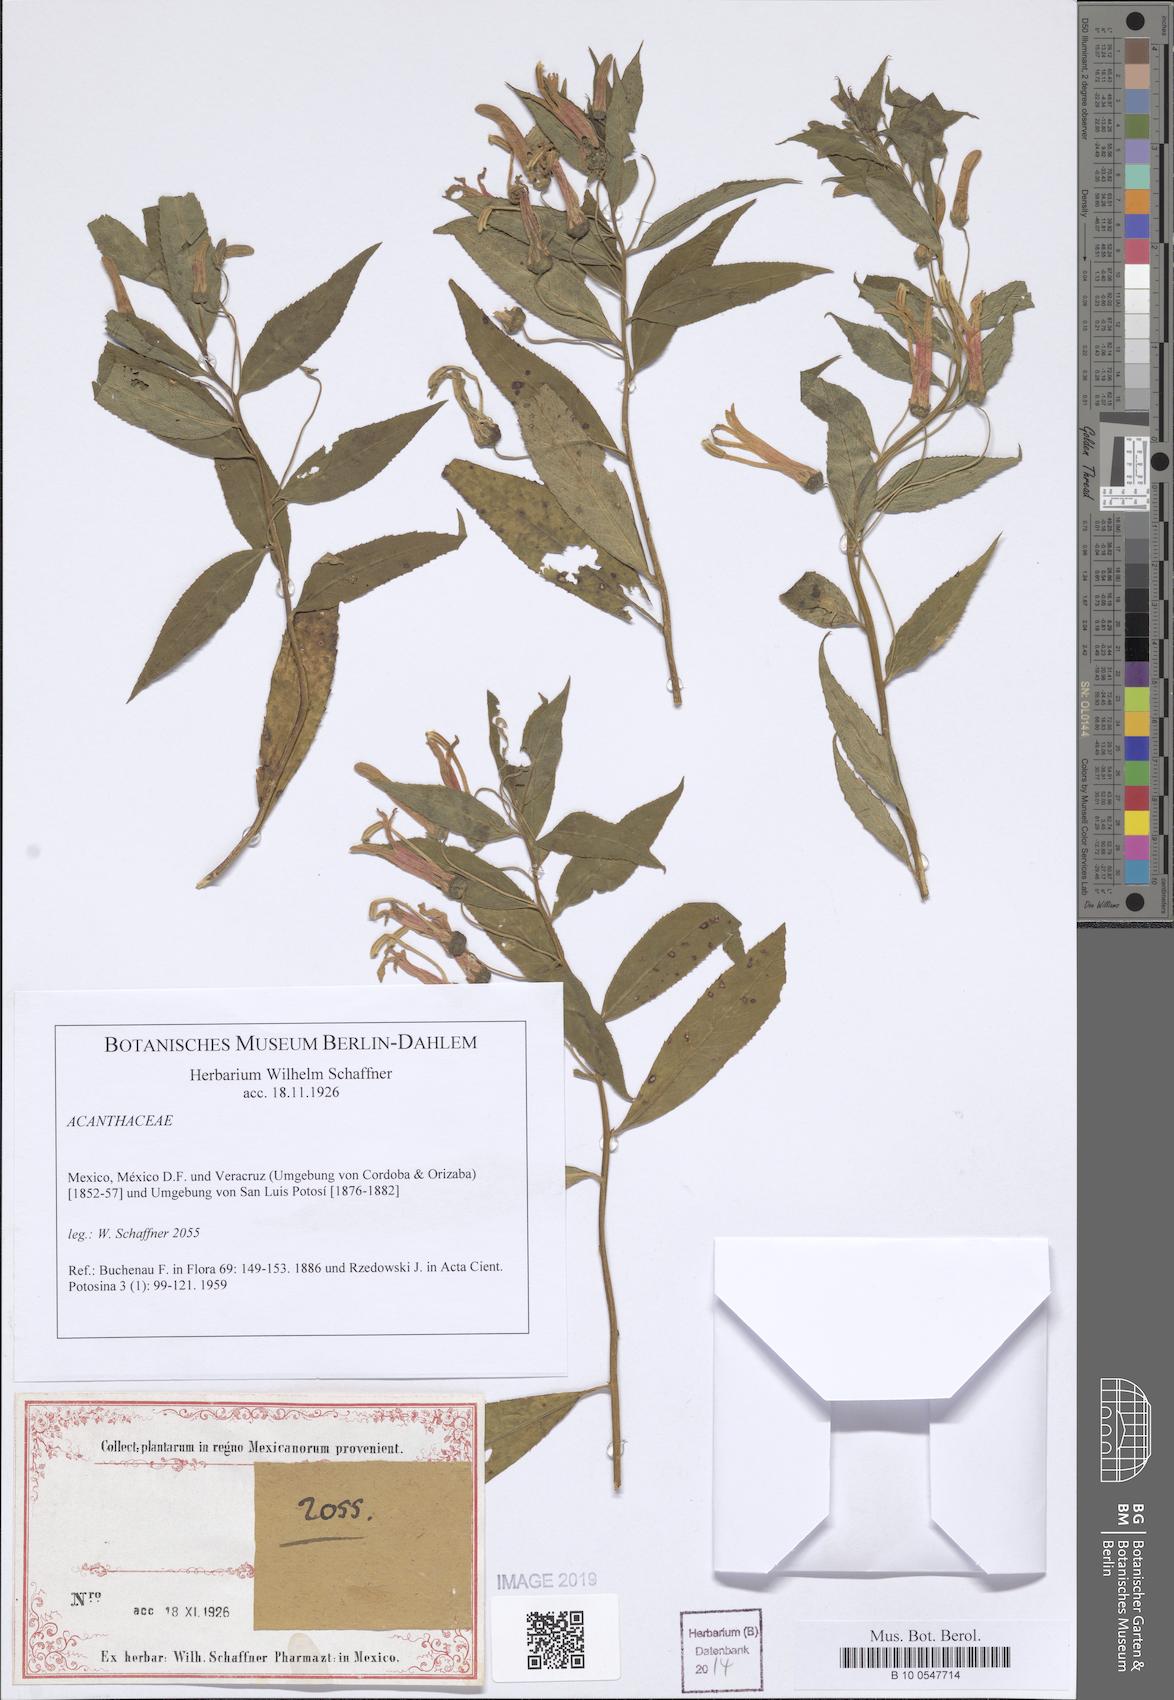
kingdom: Plantae
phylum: Tracheophyta
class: Magnoliopsida
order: Lamiales
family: Acanthaceae
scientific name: Acanthaceae
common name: Acanthaceae
